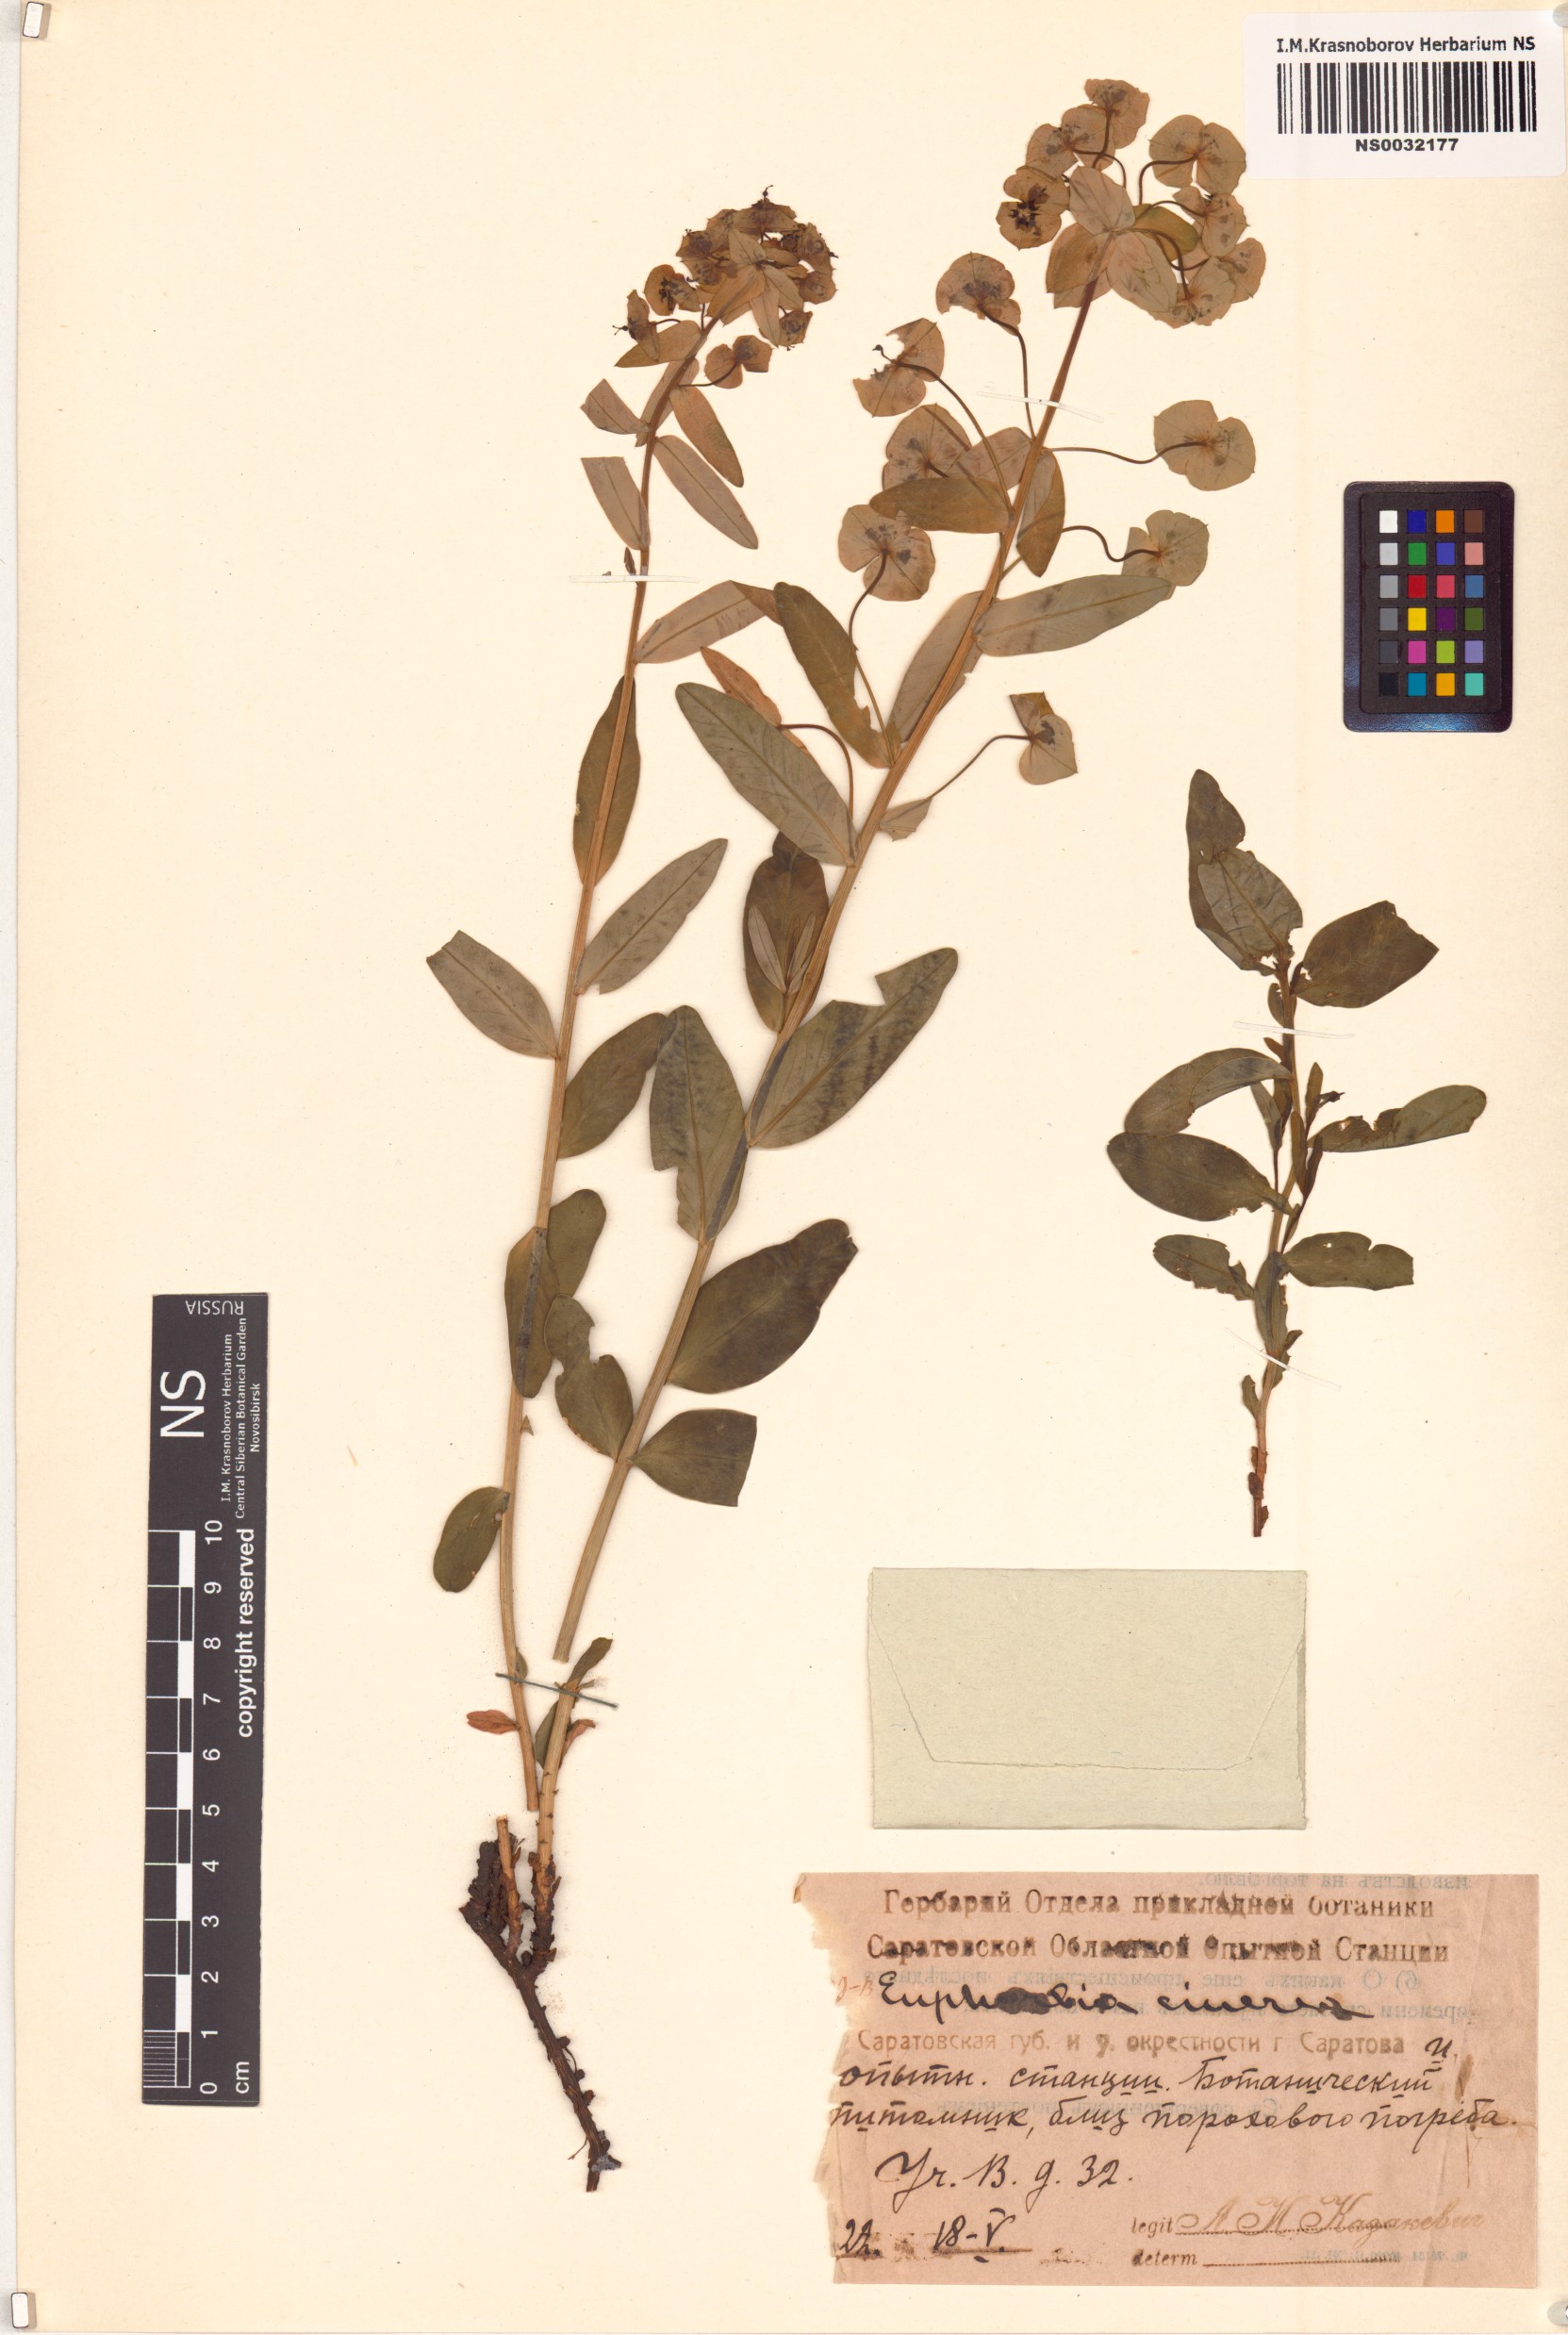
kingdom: Plantae
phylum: Tracheophyta
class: Magnoliopsida
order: Malpighiales
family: Euphorbiaceae
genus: Euphorbia
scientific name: Euphorbia cinerea
